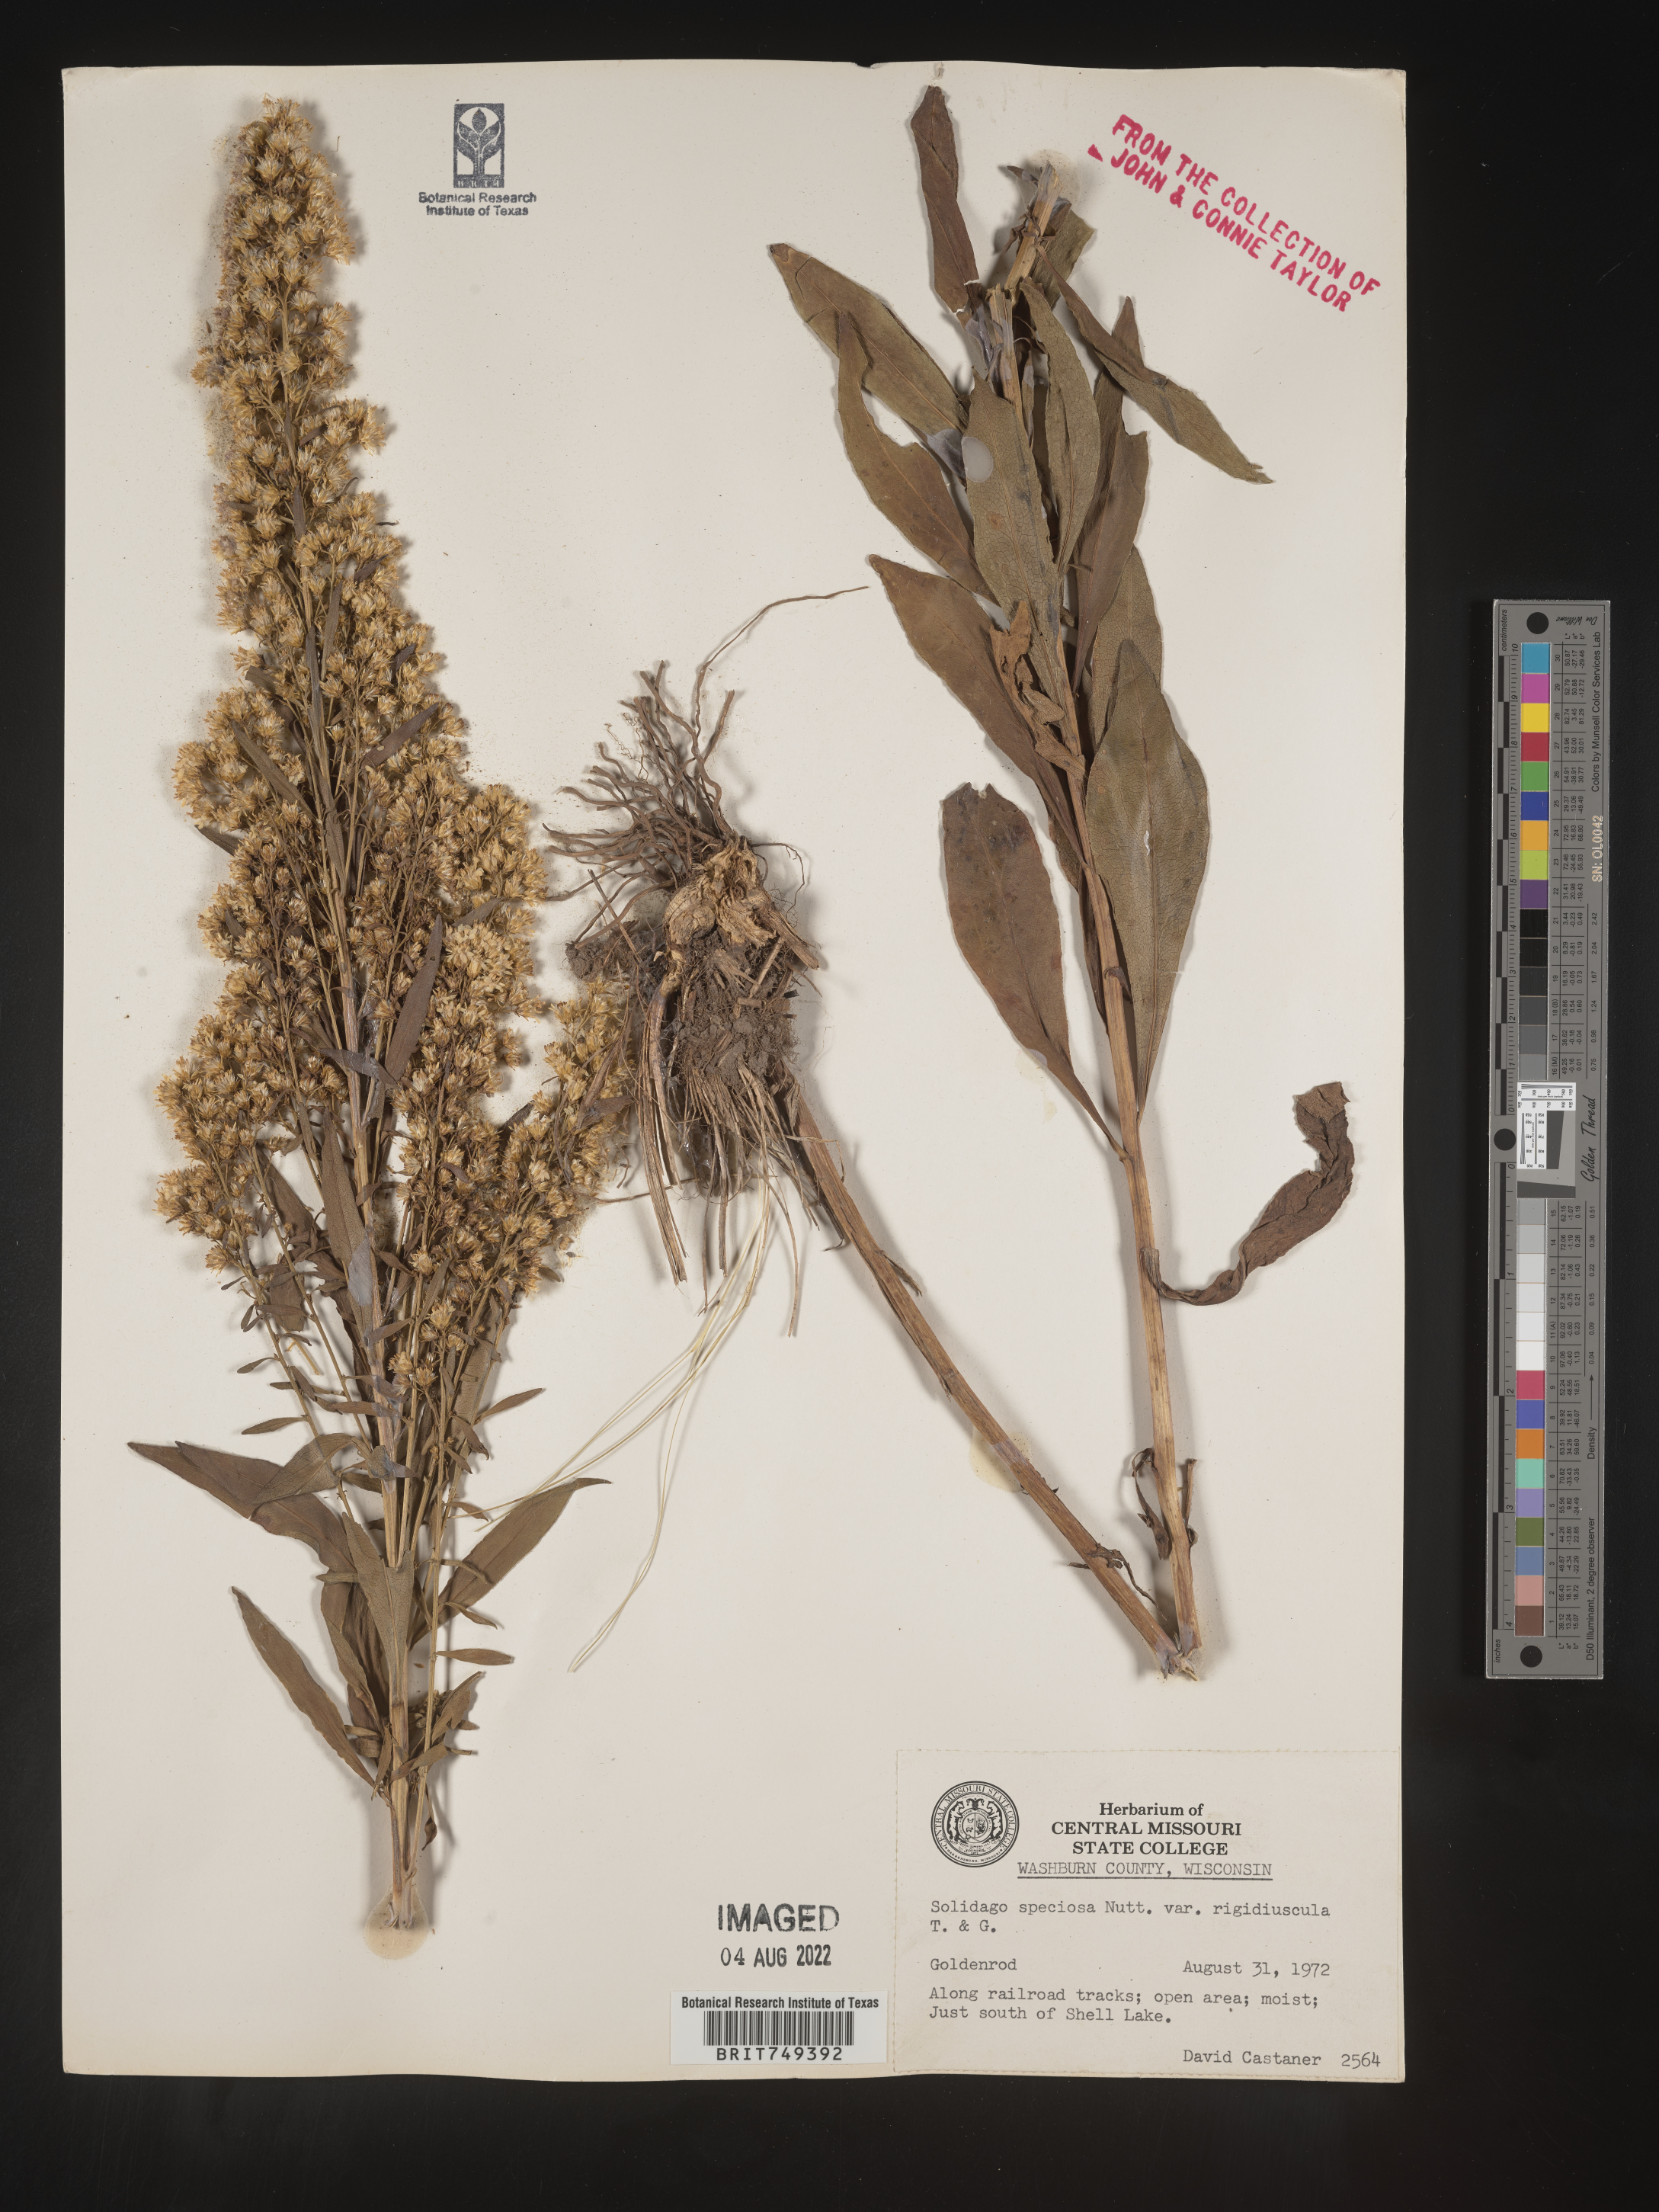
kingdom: Plantae
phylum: Tracheophyta
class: Magnoliopsida
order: Asterales
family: Asteraceae
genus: Solidago
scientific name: Solidago speciosa
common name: Showy goldenrod
